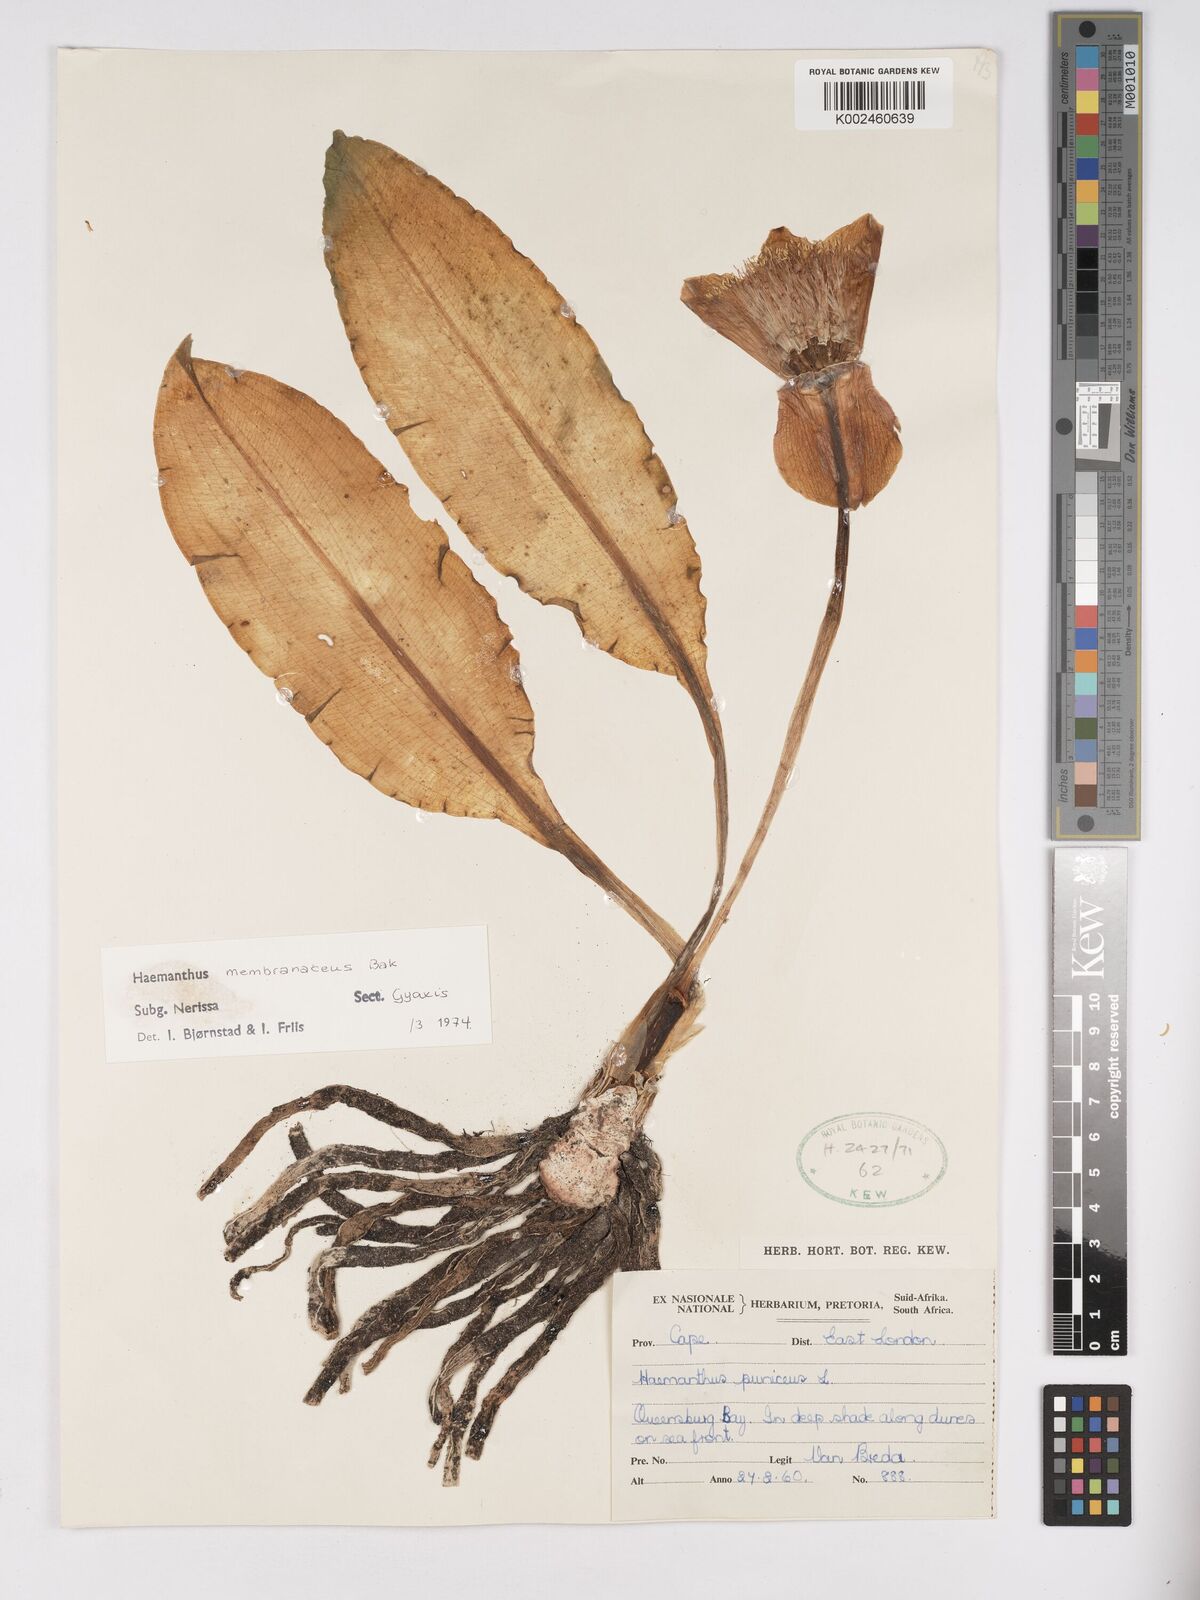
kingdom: Plantae
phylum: Tracheophyta
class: Liliopsida
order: Asparagales
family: Amaryllidaceae
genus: Scadoxus
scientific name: Scadoxus membranaceus
